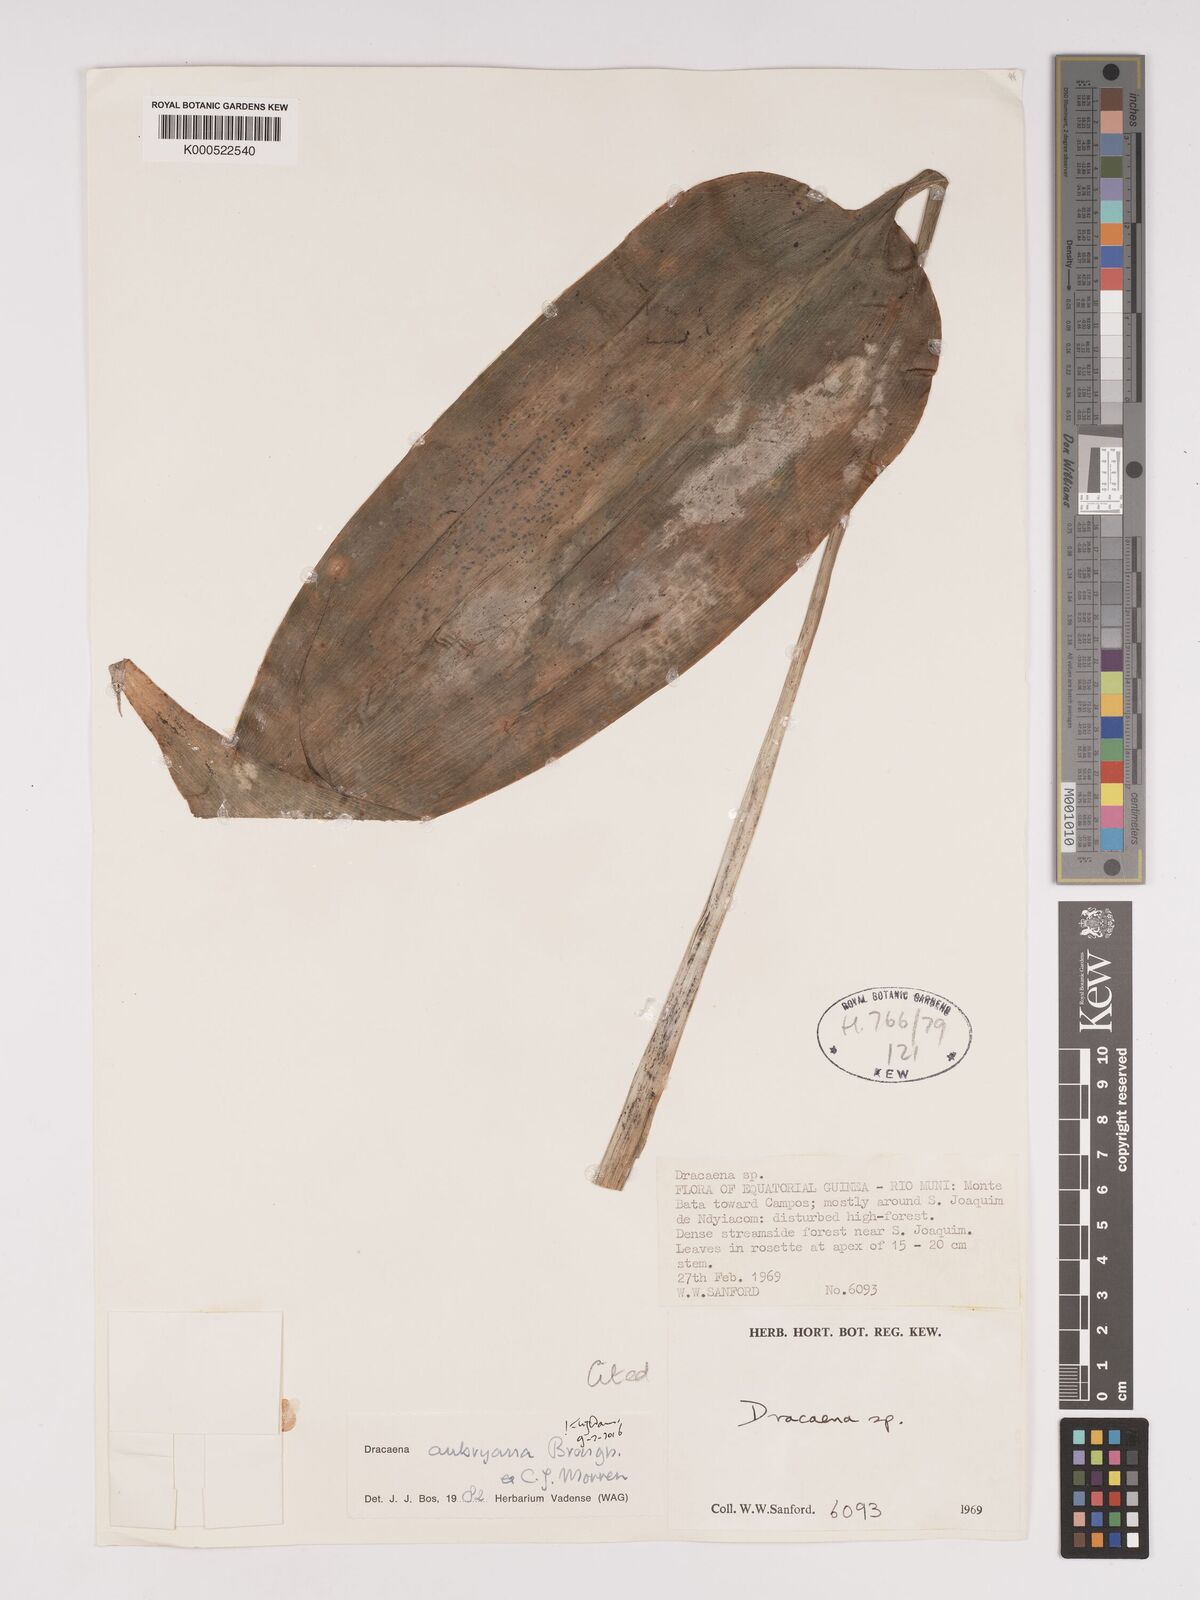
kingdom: Plantae
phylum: Tracheophyta
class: Liliopsida
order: Asparagales
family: Asparagaceae
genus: Dracaena
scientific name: Dracaena aubryana
